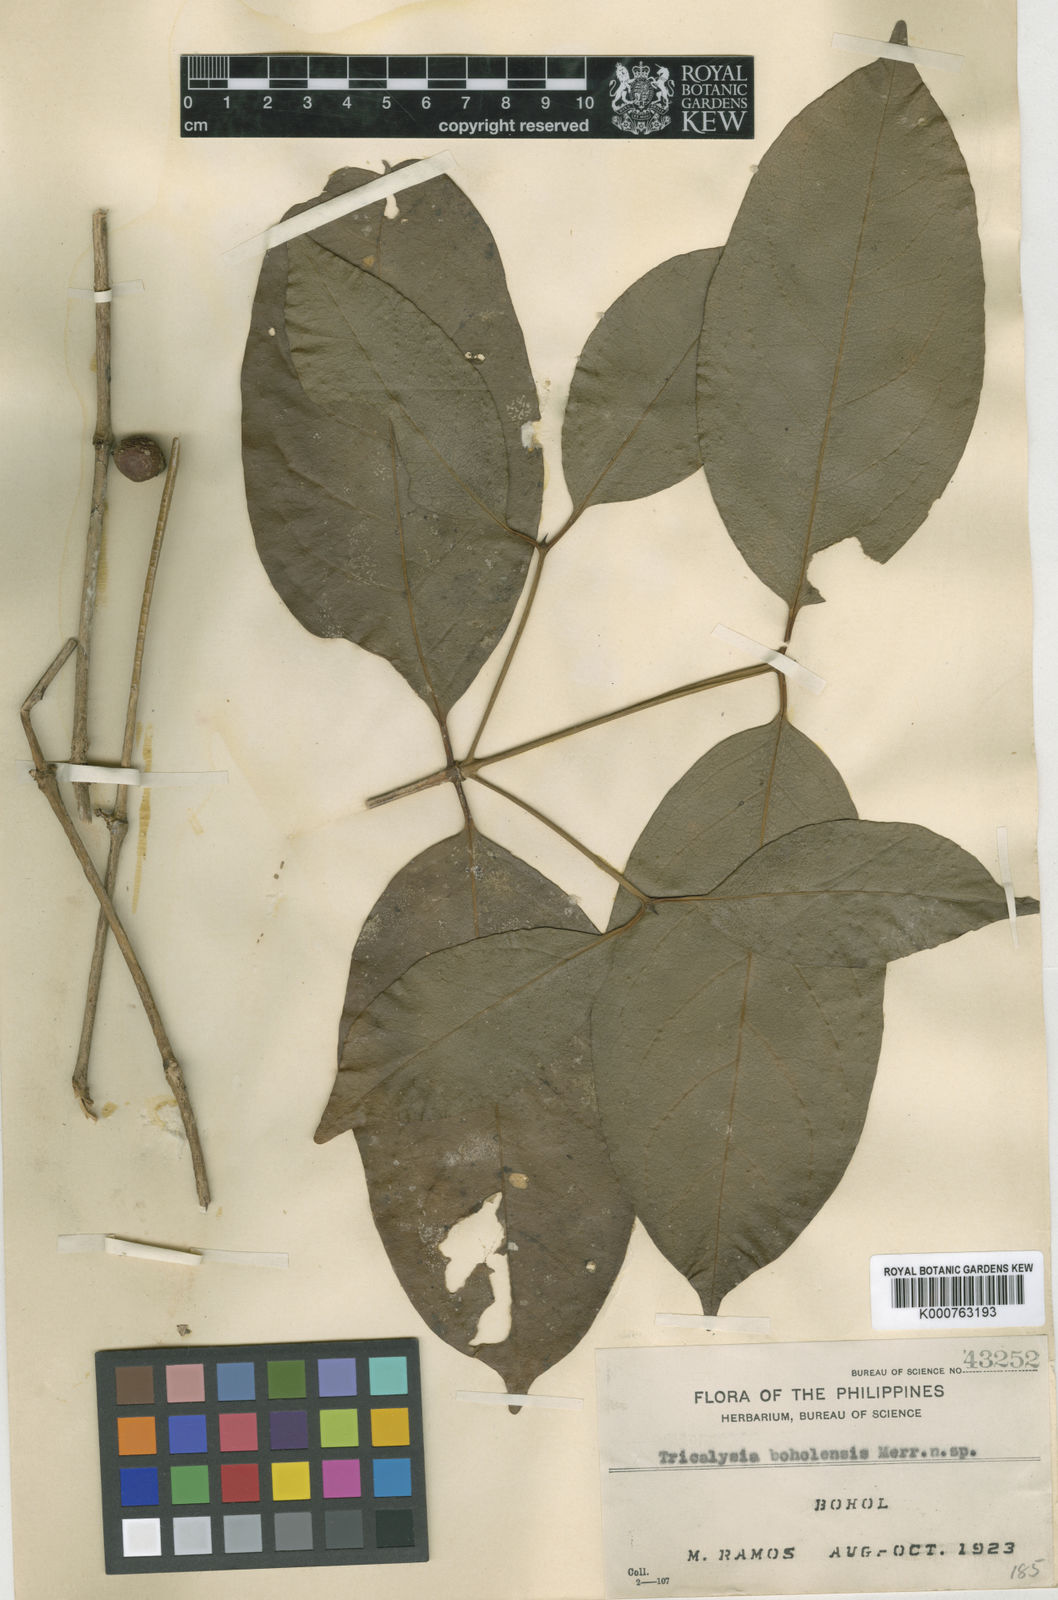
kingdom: Plantae
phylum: Tracheophyta
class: Magnoliopsida
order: Gentianales
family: Rubiaceae
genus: Discospermum
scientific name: Discospermum whitfordii
